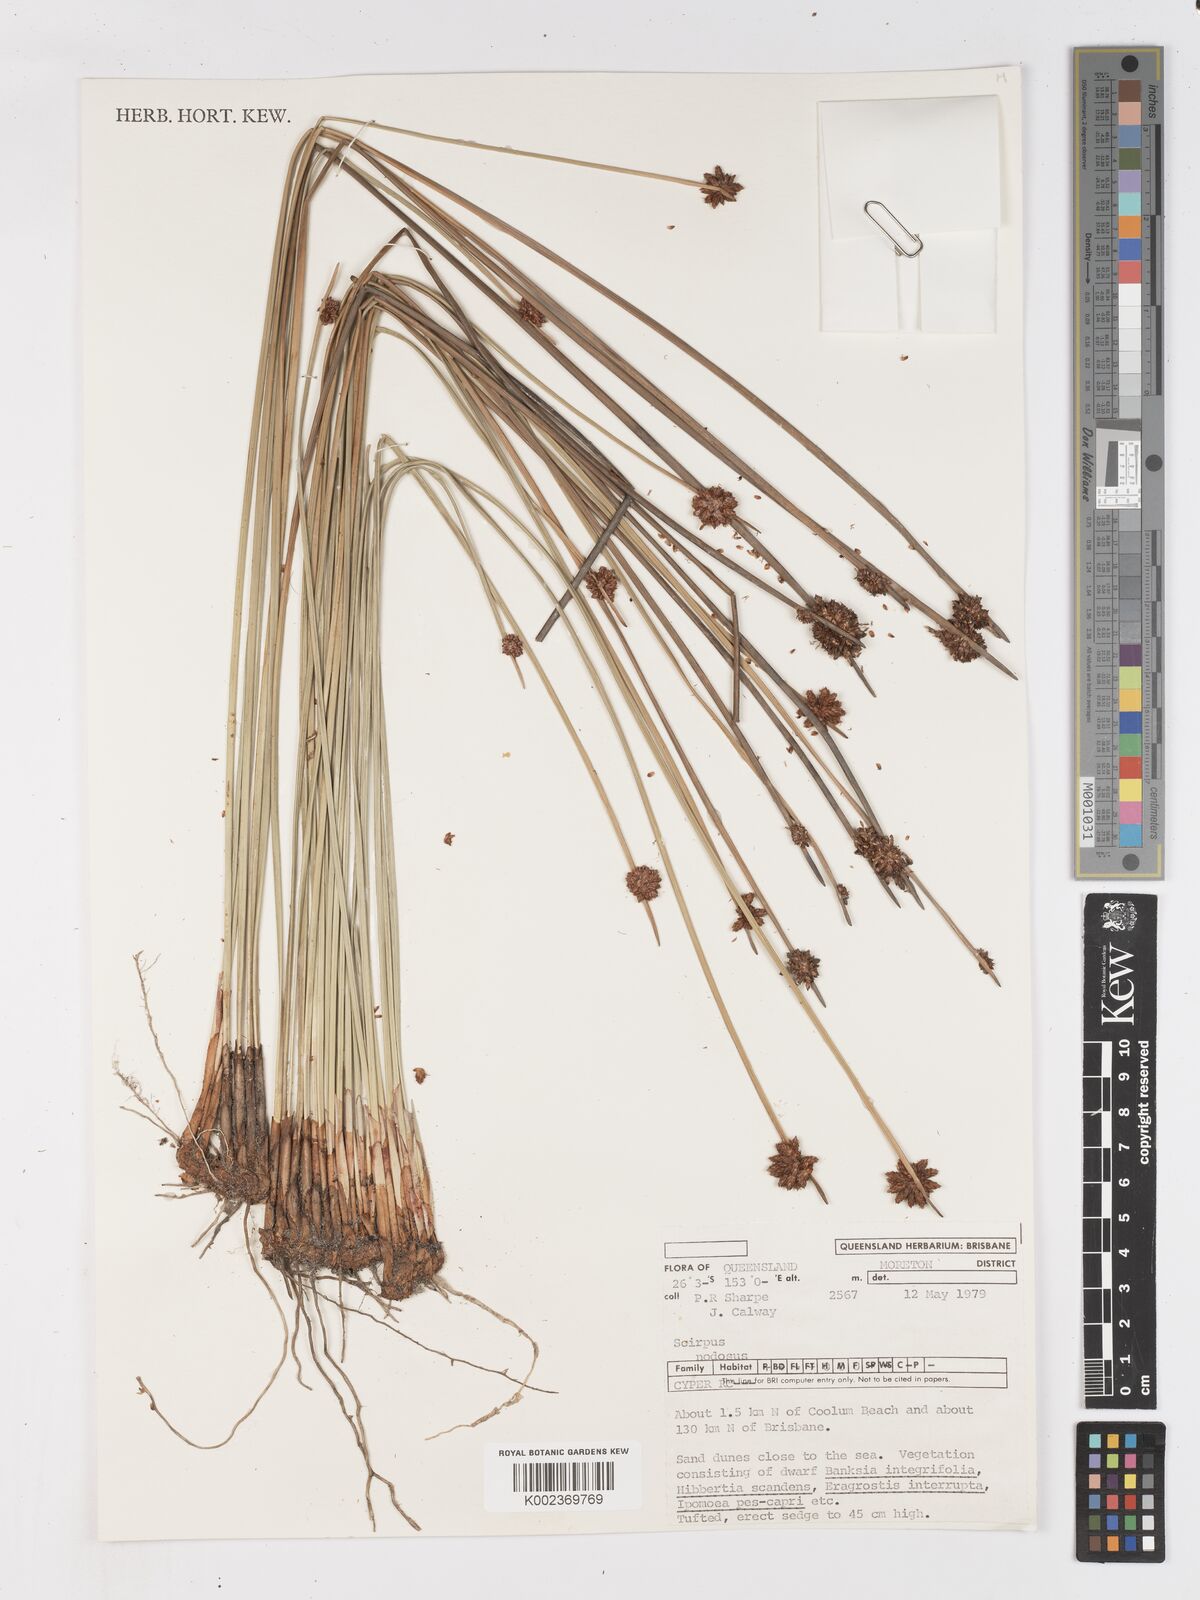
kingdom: Plantae
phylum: Tracheophyta
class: Liliopsida
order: Poales
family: Cyperaceae
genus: Ficinia
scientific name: Ficinia nodosa
